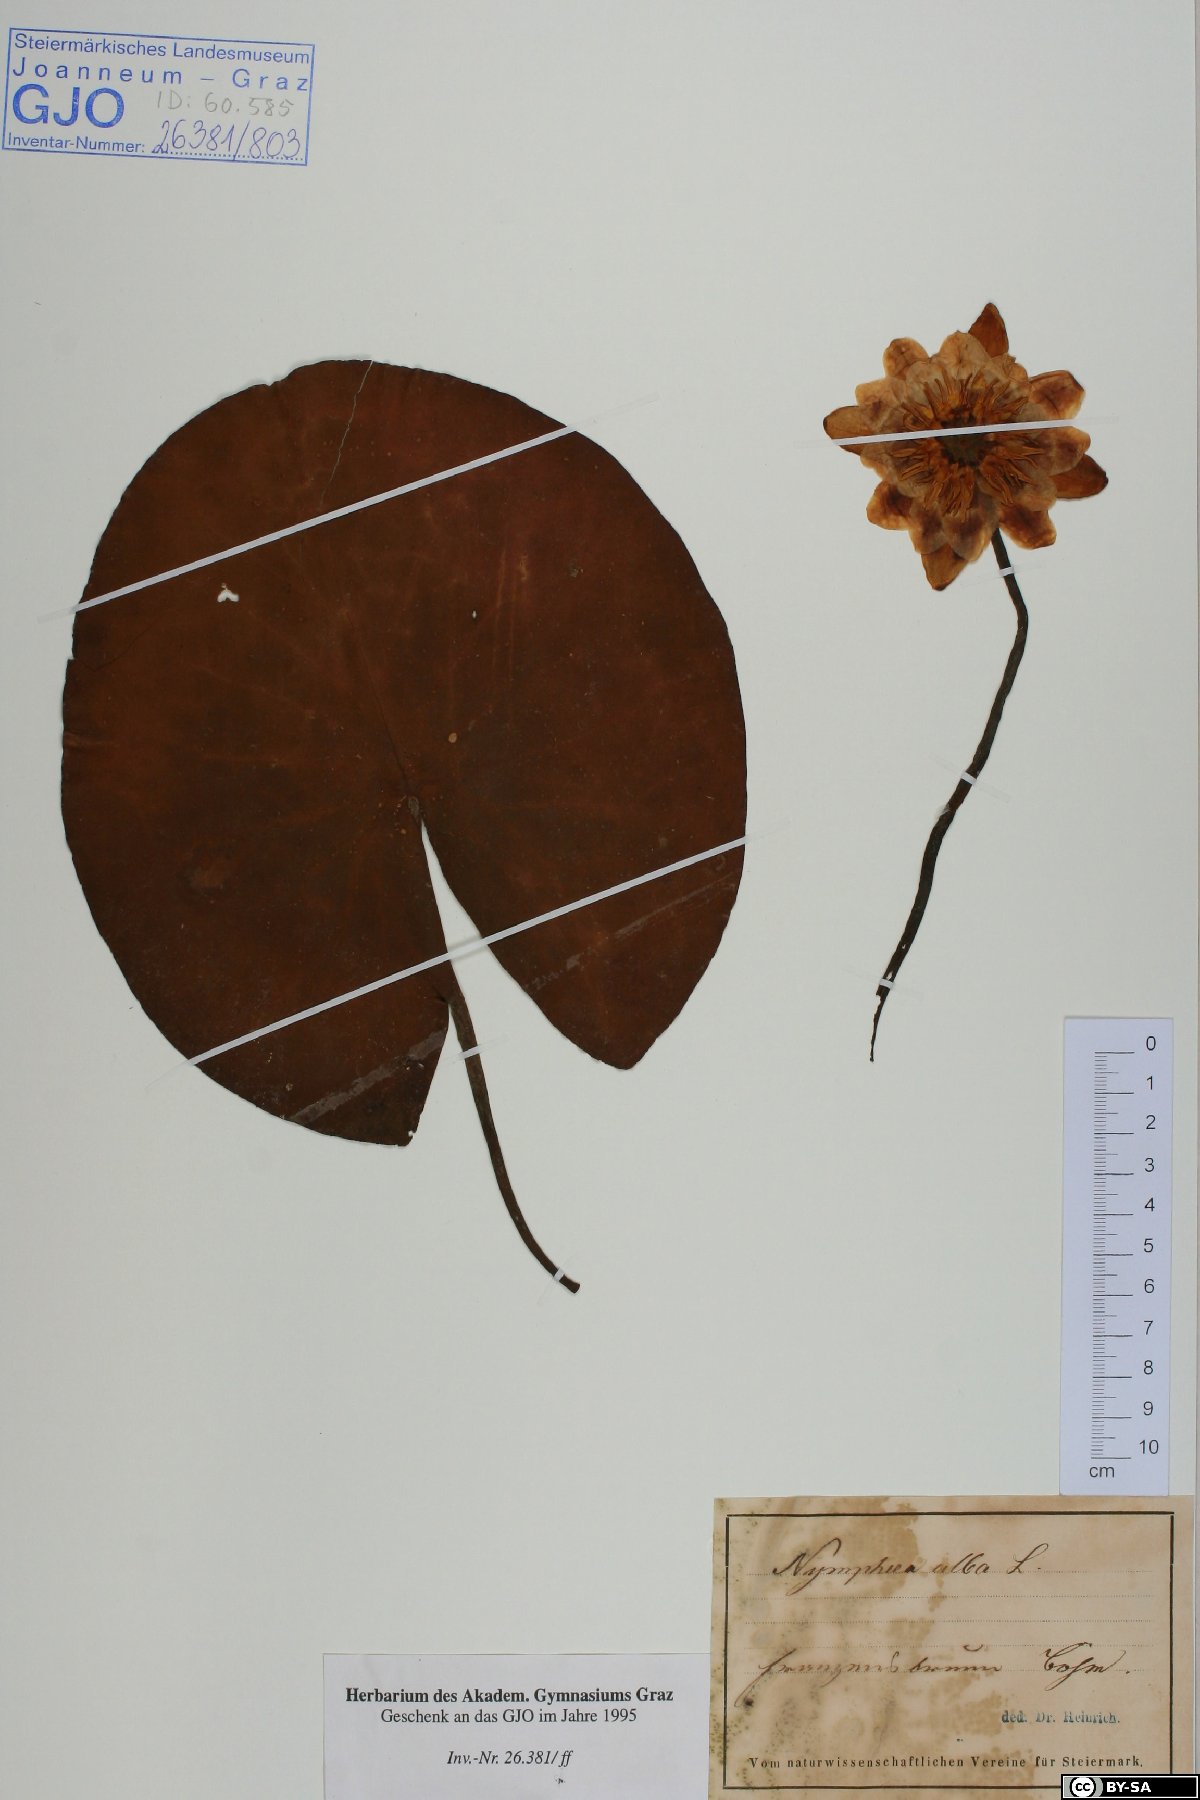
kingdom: Plantae
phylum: Tracheophyta
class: Magnoliopsida
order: Nymphaeales
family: Nymphaeaceae
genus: Nymphaea
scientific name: Nymphaea alba
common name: White water-lily
